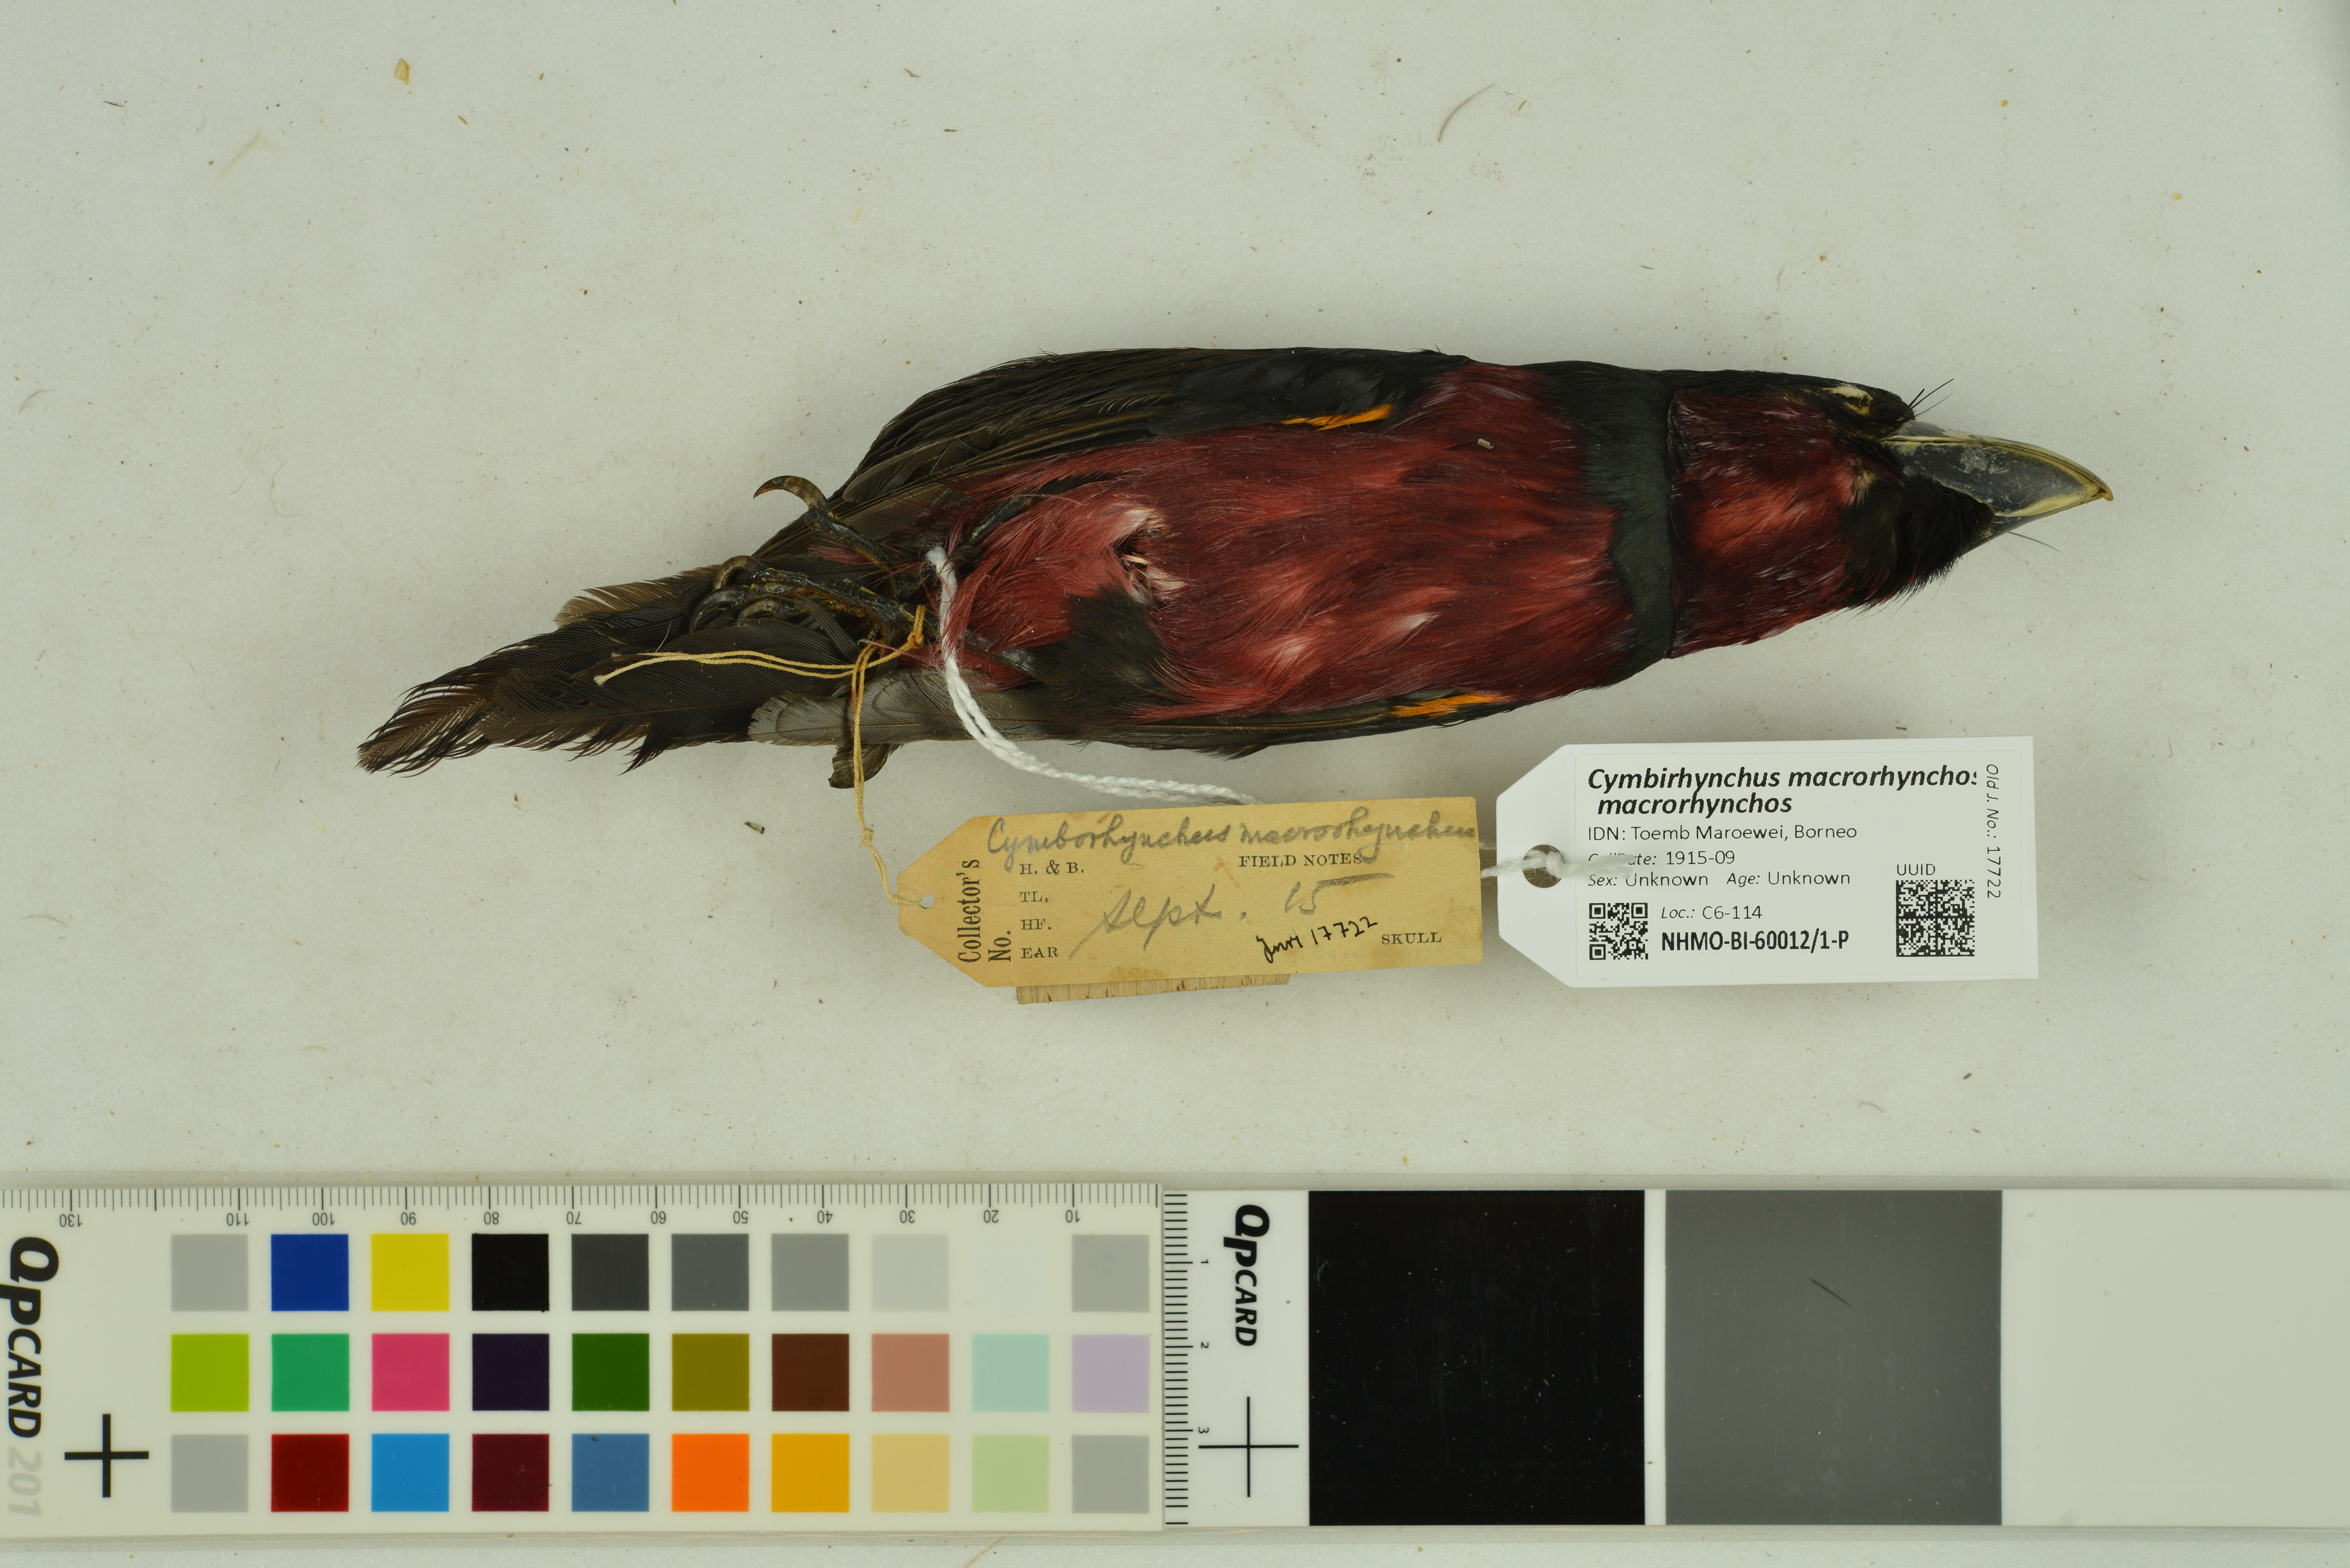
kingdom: Animalia
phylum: Chordata
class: Aves
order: Passeriformes
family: Eurylaimidae
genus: Cymbirhynchus
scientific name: Cymbirhynchus macrorhynchos
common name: Black-and-red broadbill
